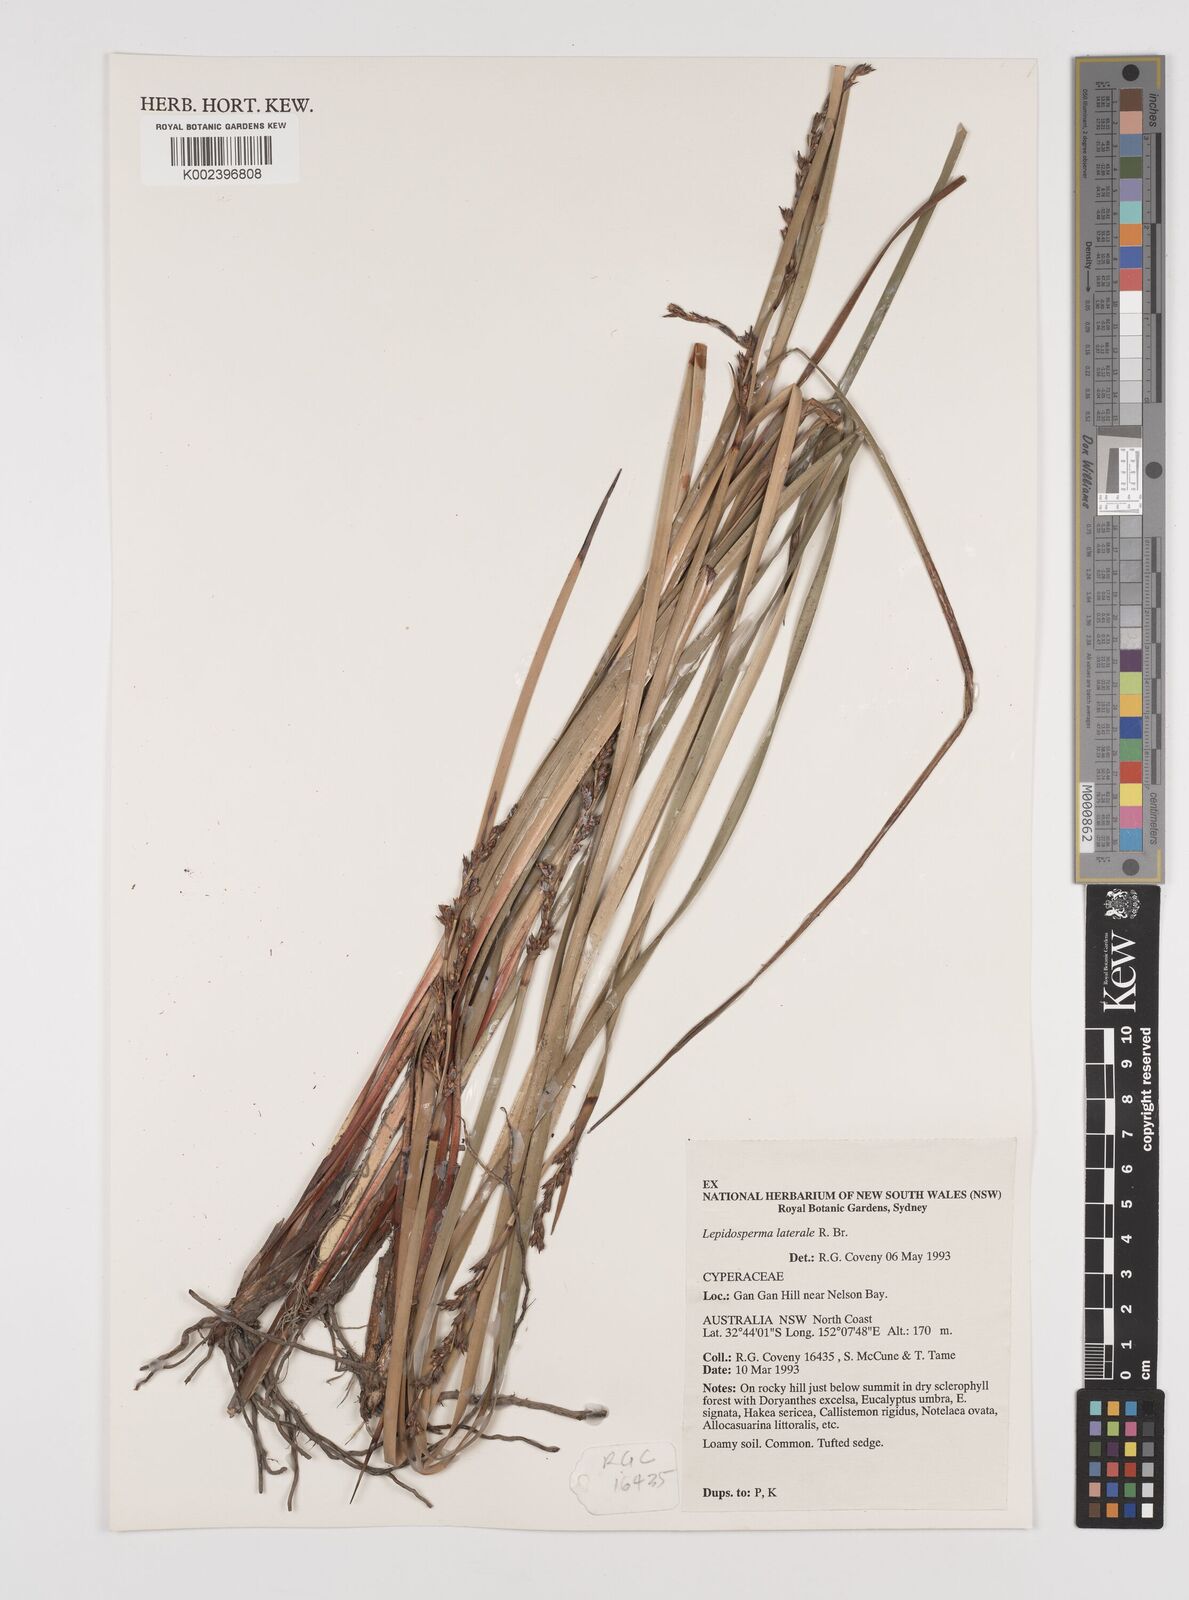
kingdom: Plantae
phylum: Tracheophyta
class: Liliopsida
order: Poales
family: Cyperaceae
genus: Lepidosperma
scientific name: Lepidosperma laterale
